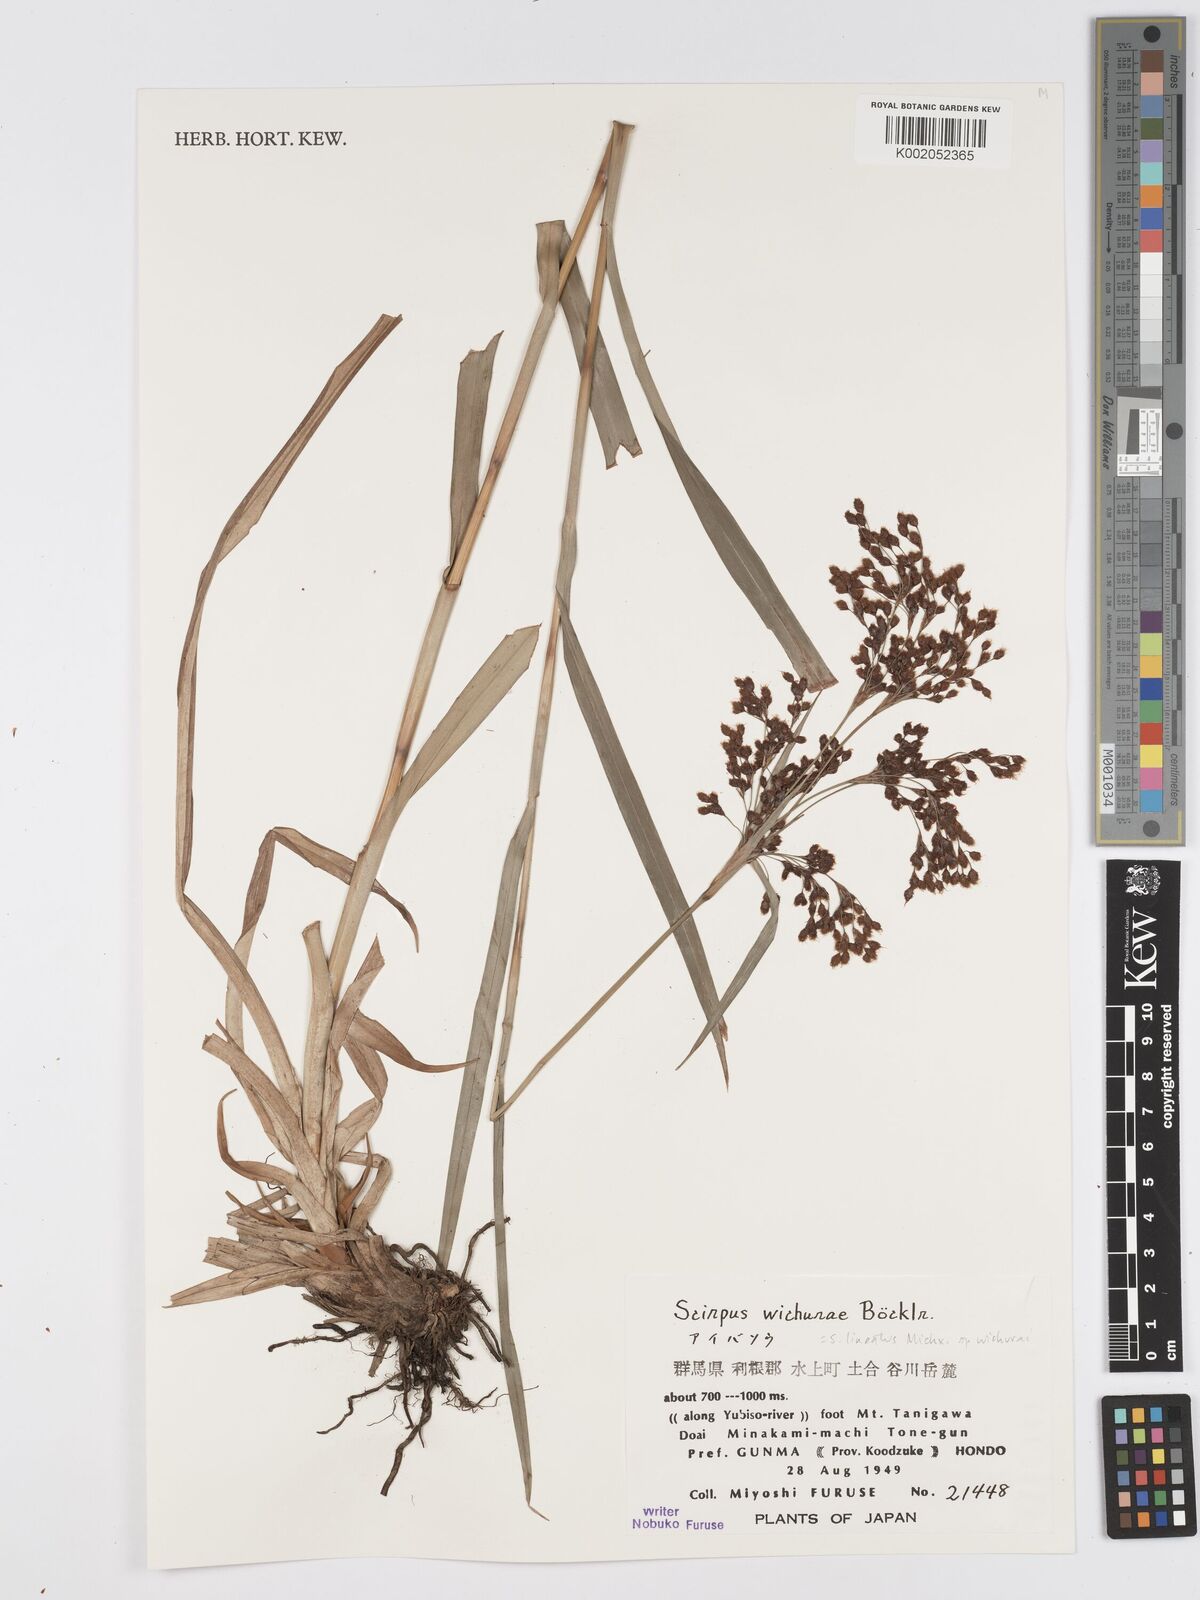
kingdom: Plantae
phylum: Tracheophyta
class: Liliopsida
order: Poales
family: Cyperaceae
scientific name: Cyperaceae
